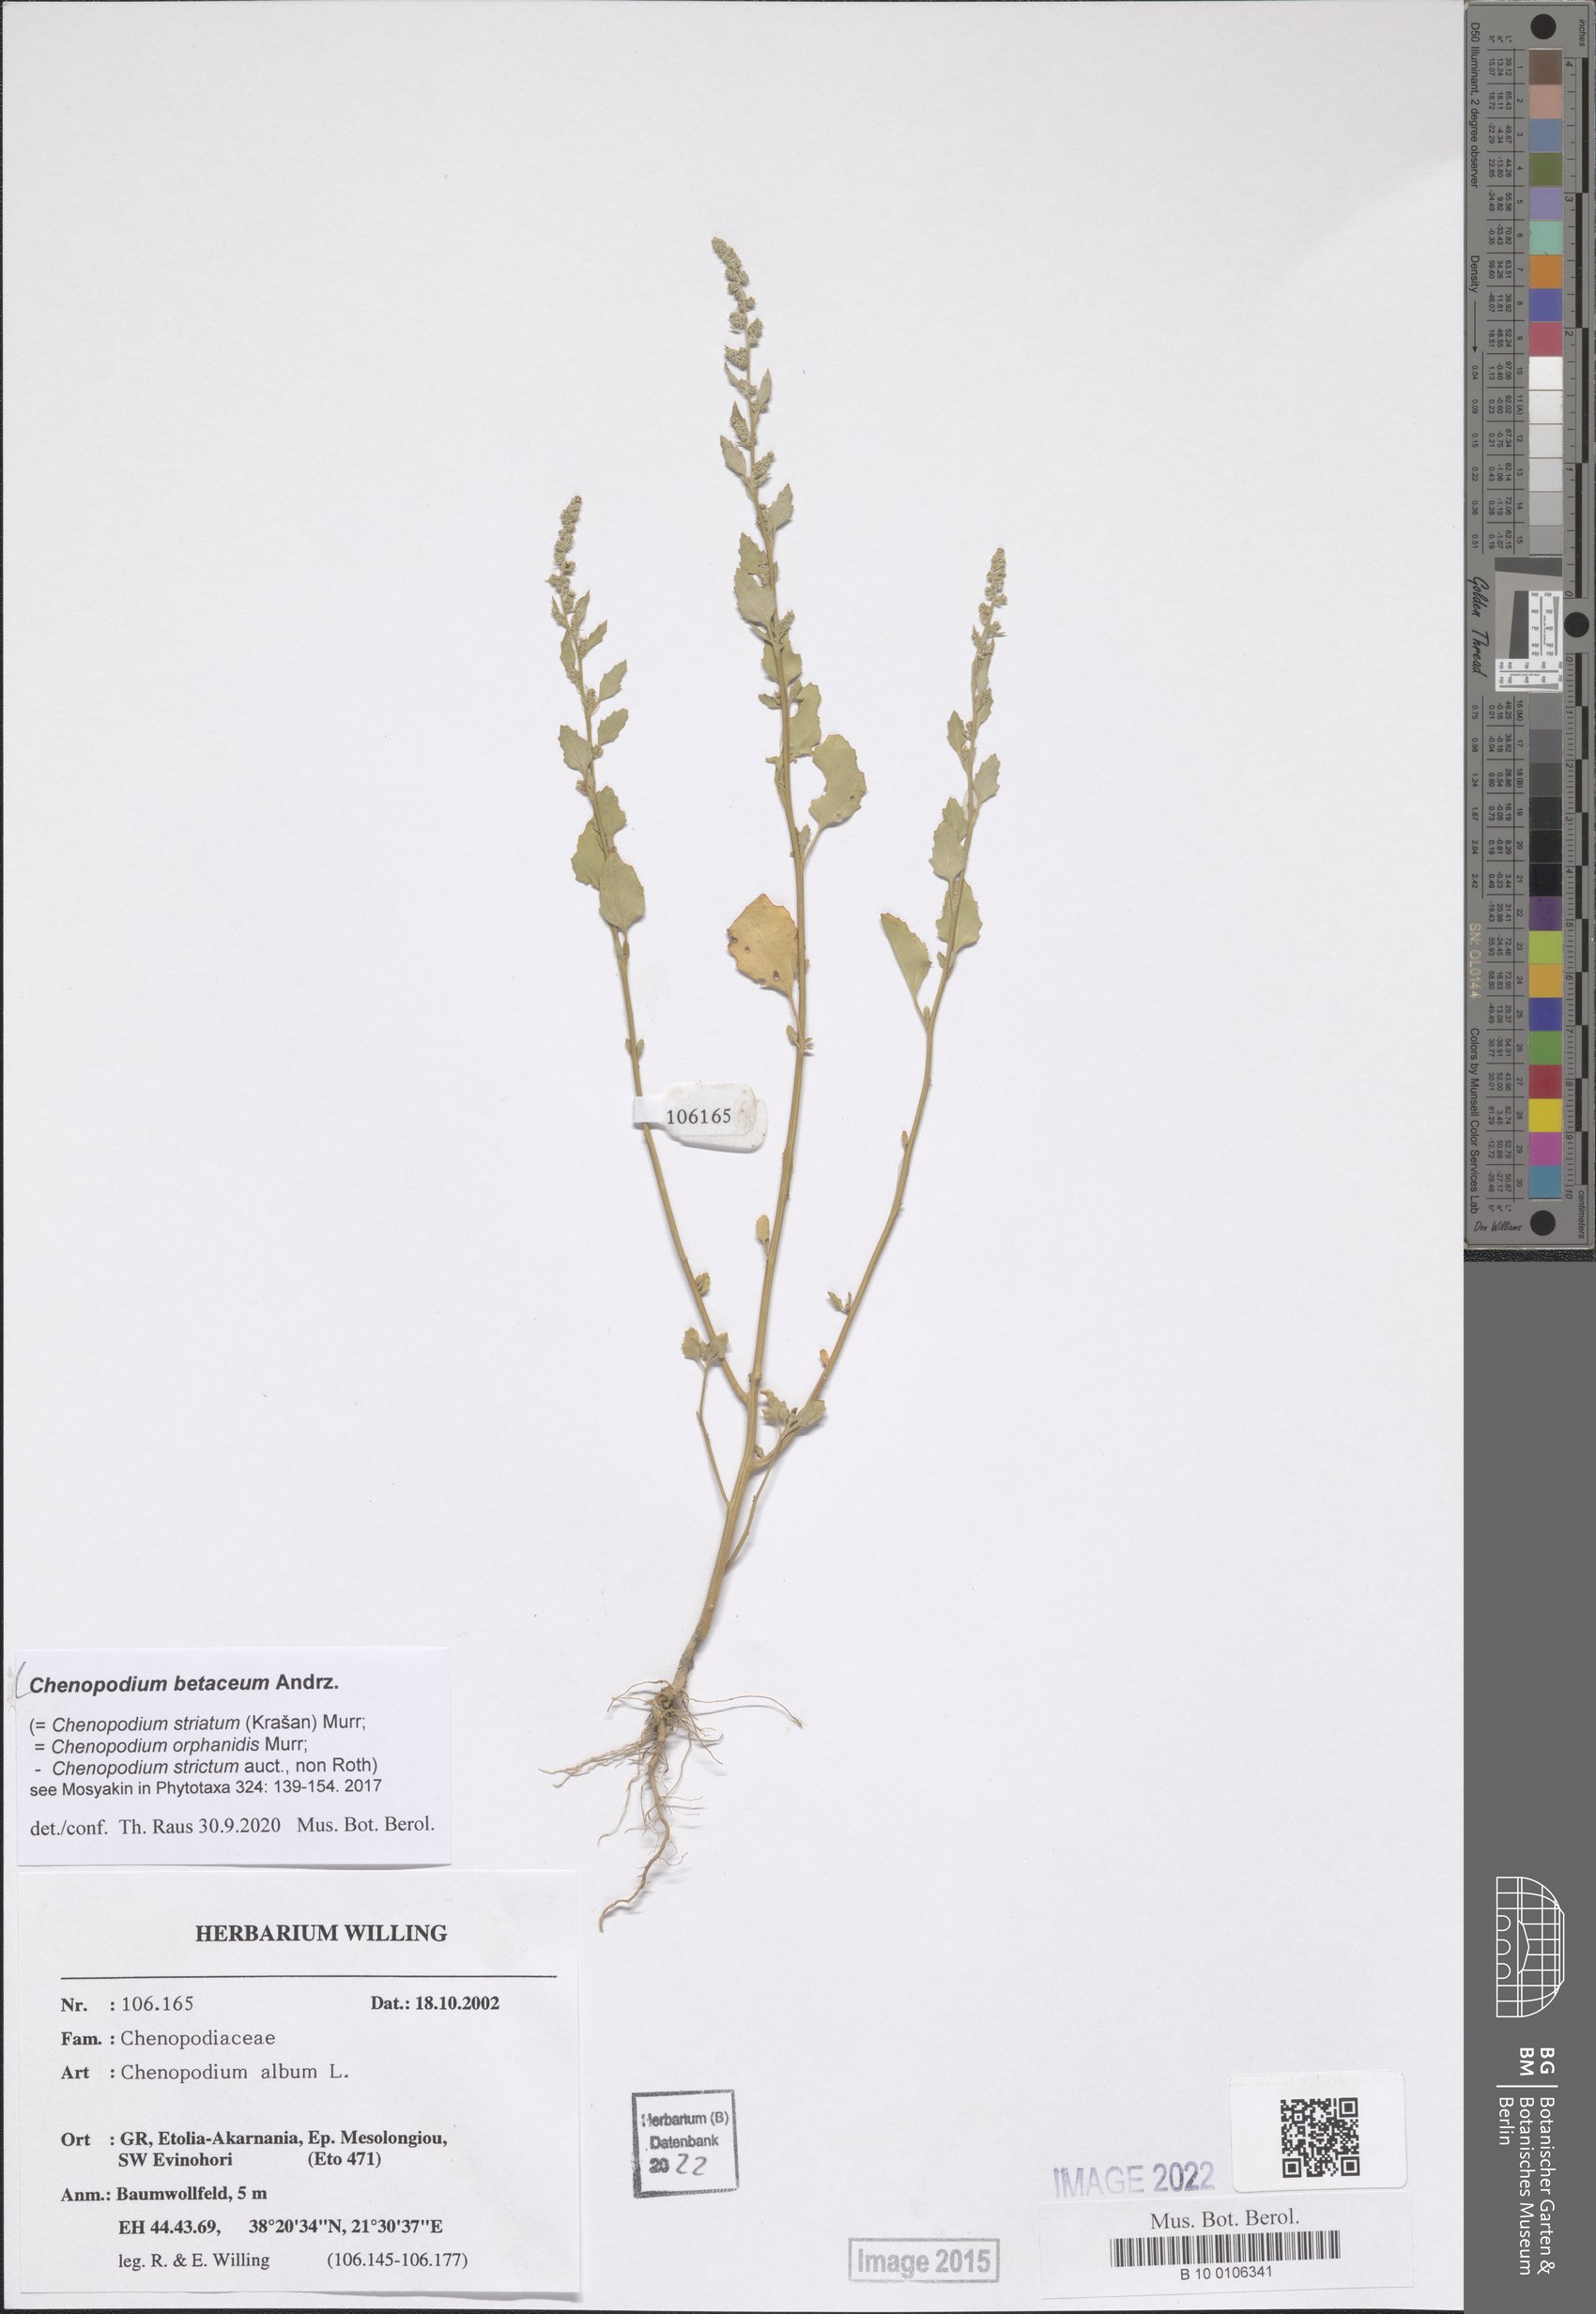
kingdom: Plantae
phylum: Tracheophyta
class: Magnoliopsida
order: Caryophyllales
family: Amaranthaceae
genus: Chenopodium
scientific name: Chenopodium betaceum
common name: Striped goosefoot
